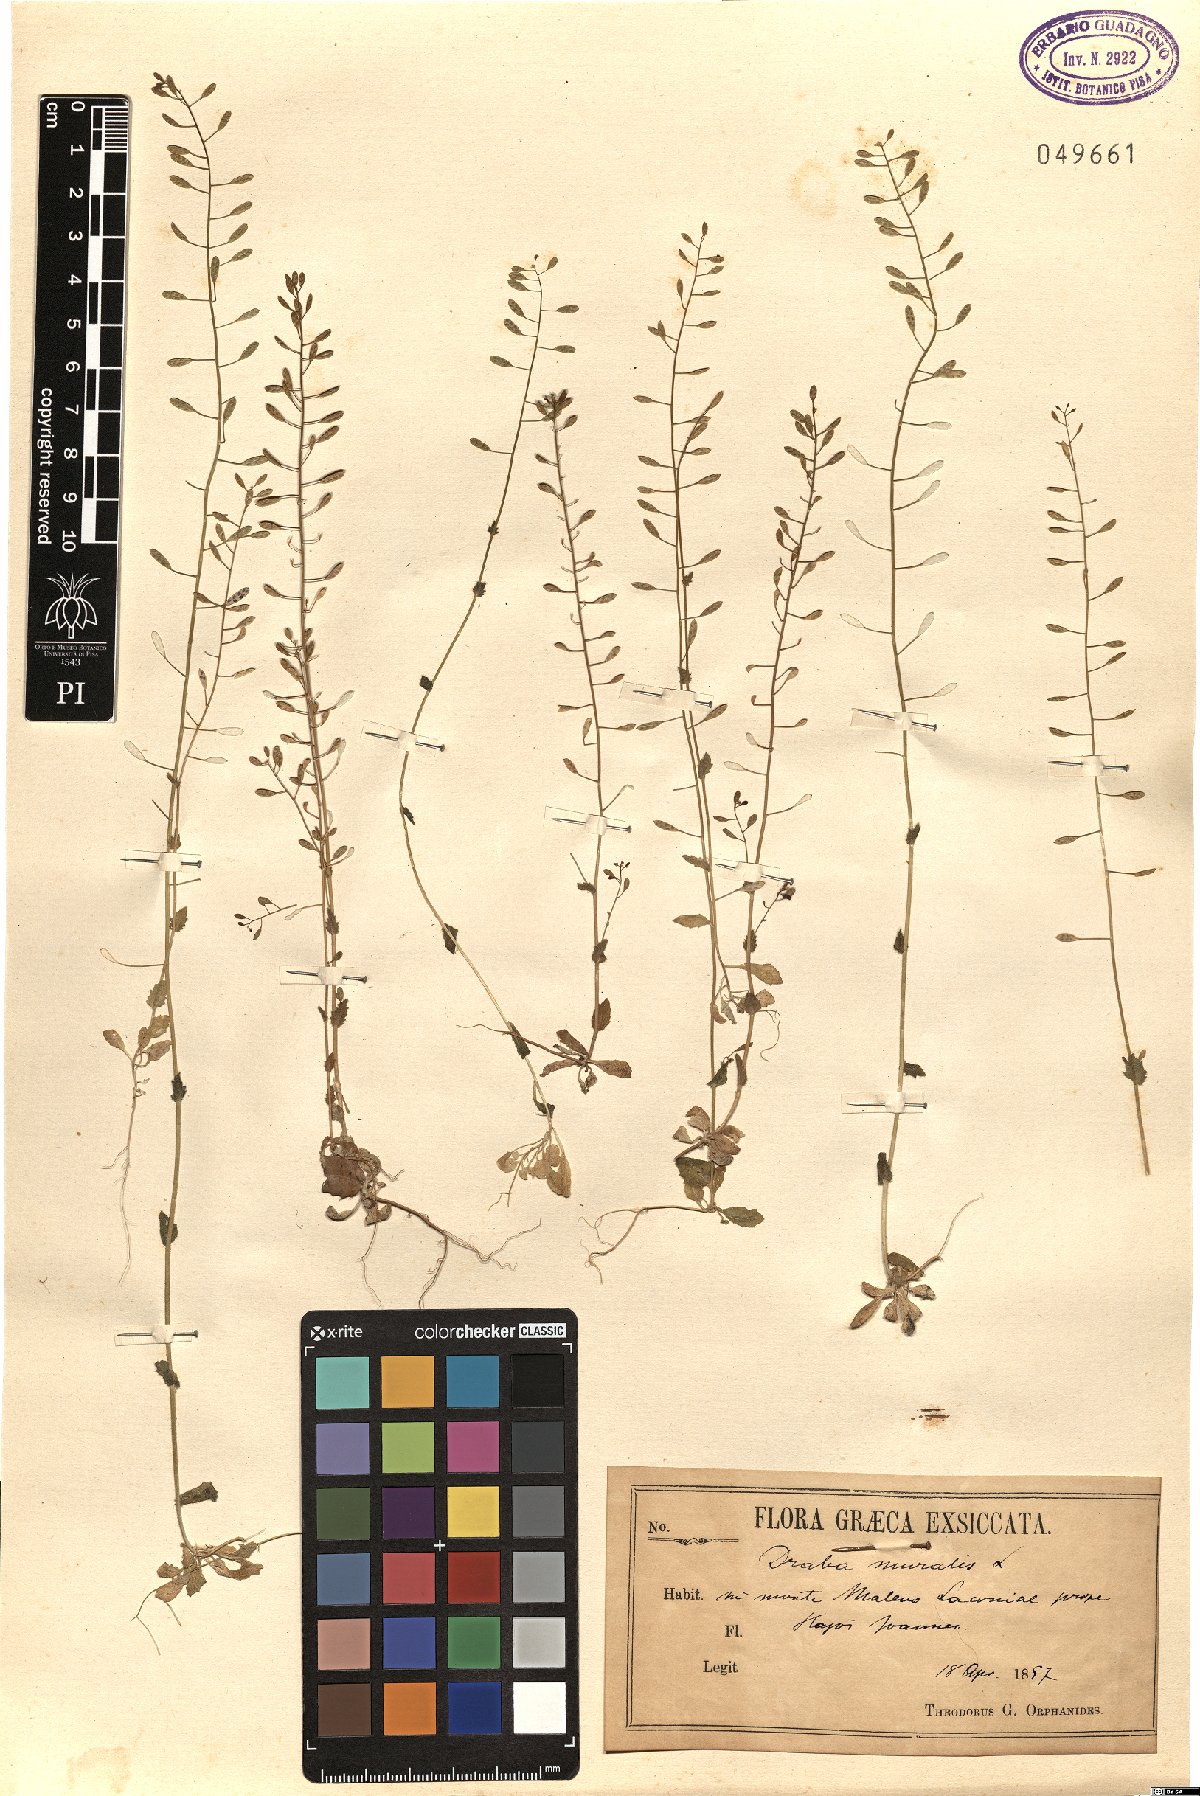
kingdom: Plantae
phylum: Tracheophyta
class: Magnoliopsida
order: Brassicales
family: Brassicaceae
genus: Drabella
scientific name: Drabella muralis
